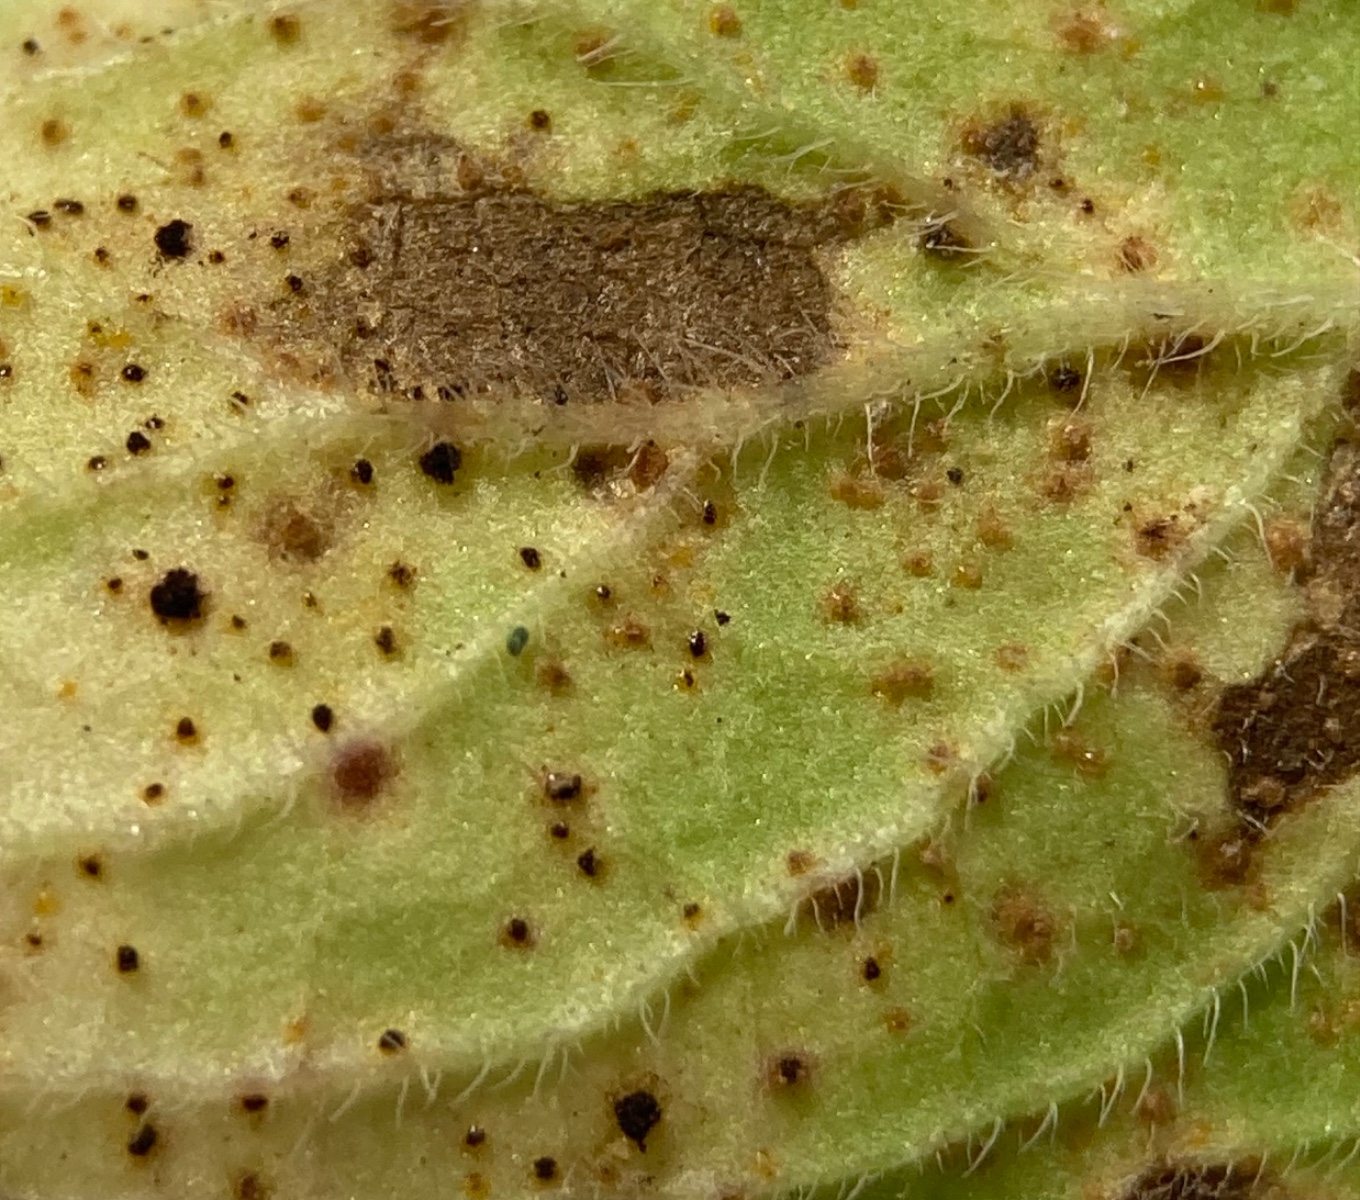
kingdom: Fungi
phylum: Basidiomycota
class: Pucciniomycetes
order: Pucciniales
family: Pucciniaceae
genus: Puccinia
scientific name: Puccinia menthae
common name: Mint rust
